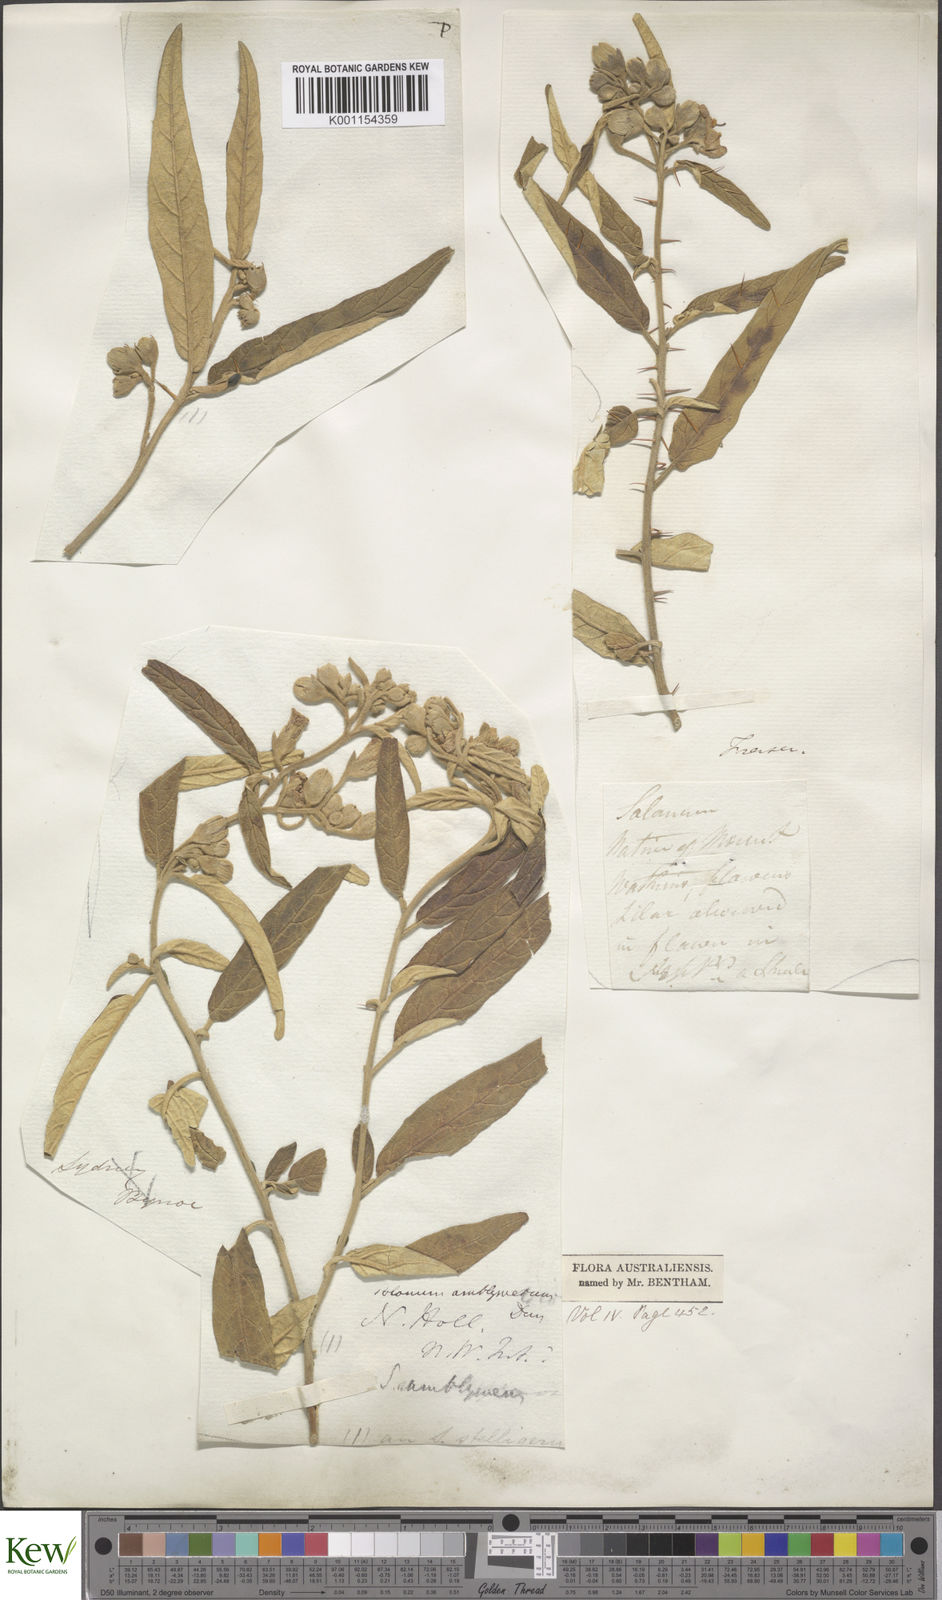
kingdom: Plantae
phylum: Tracheophyta
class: Magnoliopsida
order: Solanales
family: Solanaceae
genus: Solanum
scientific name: Solanum elegans
